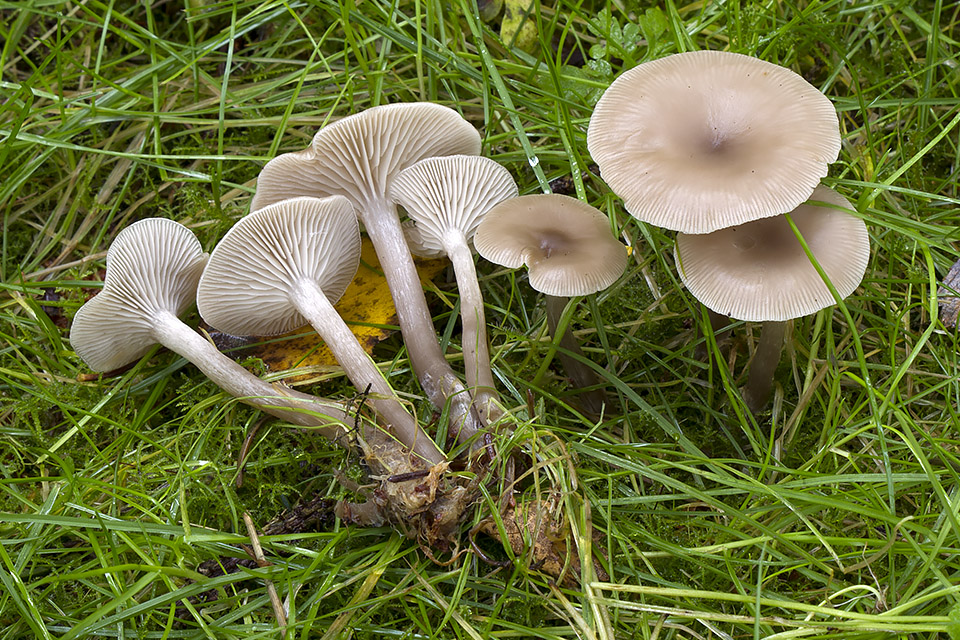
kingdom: Fungi
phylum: Basidiomycota
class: Agaricomycetes
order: Agaricales
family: Tricholomataceae
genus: Clitocybe
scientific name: Clitocybe vibecina
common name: randstribet tragthat
